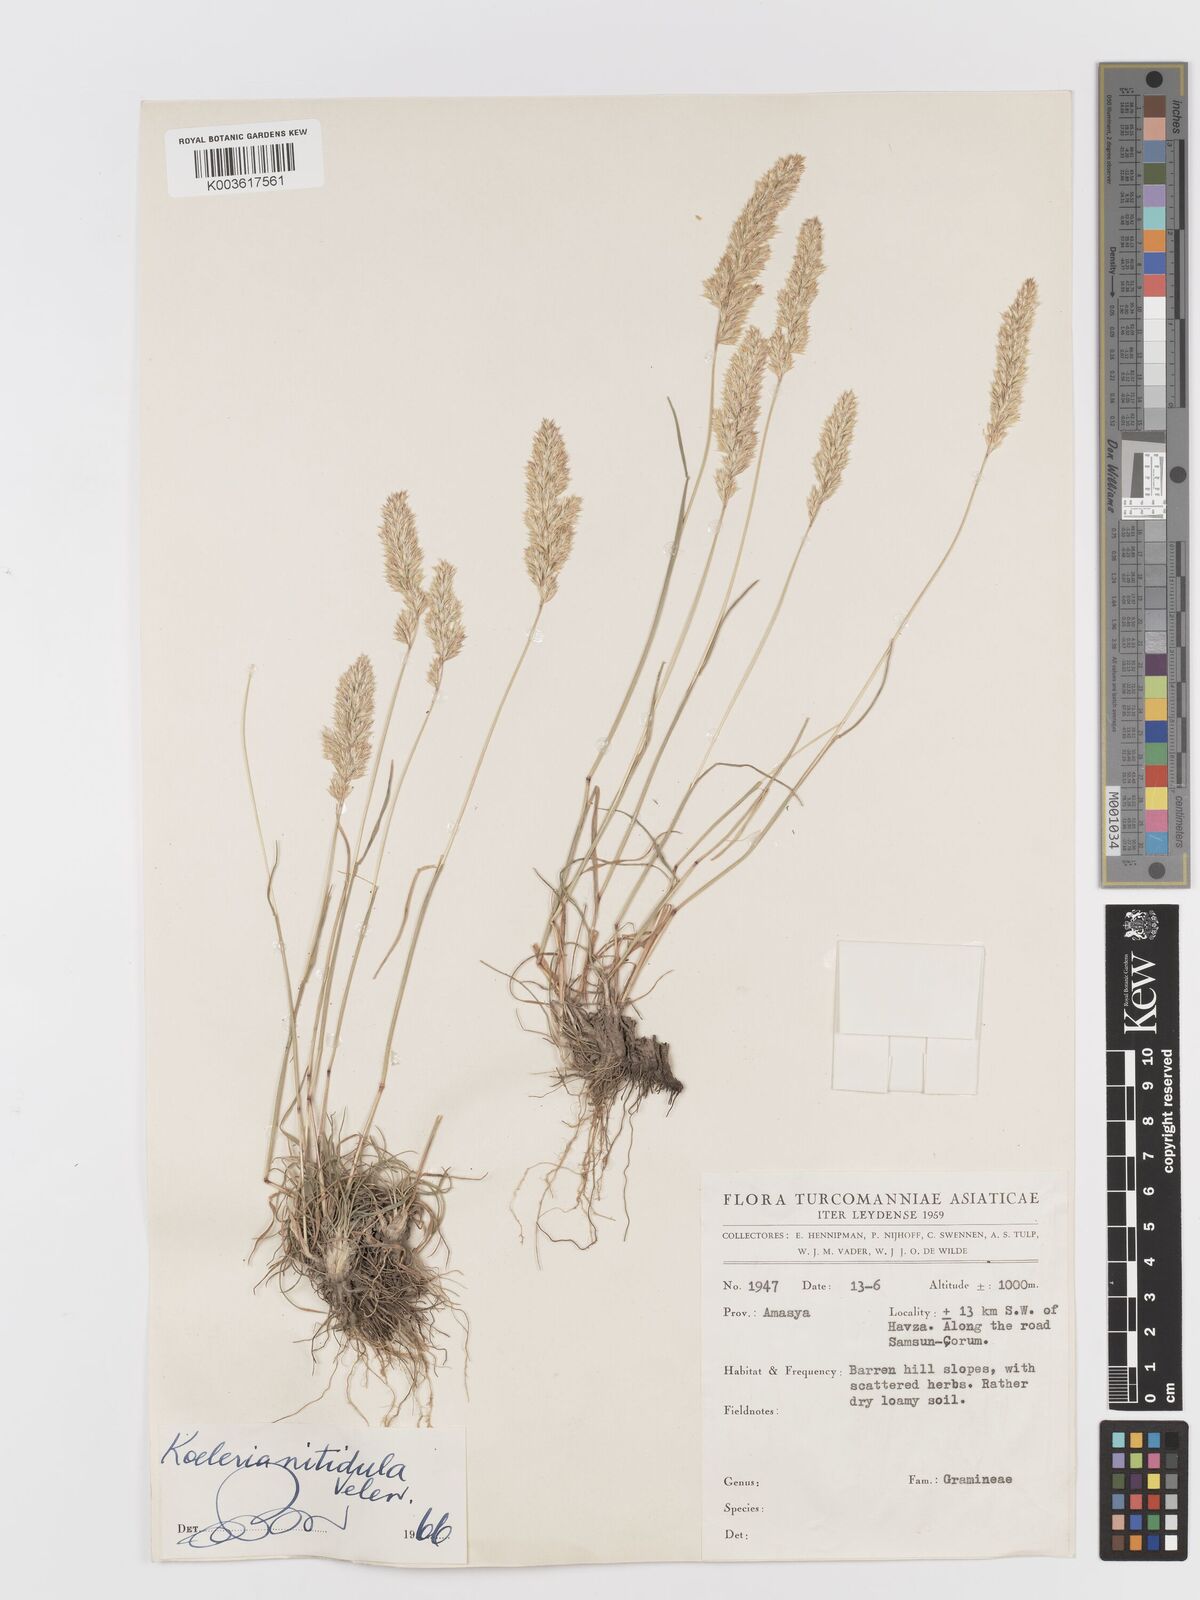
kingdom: Plantae
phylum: Tracheophyta
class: Liliopsida
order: Poales
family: Poaceae
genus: Koeleria
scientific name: Koeleria nitidula
